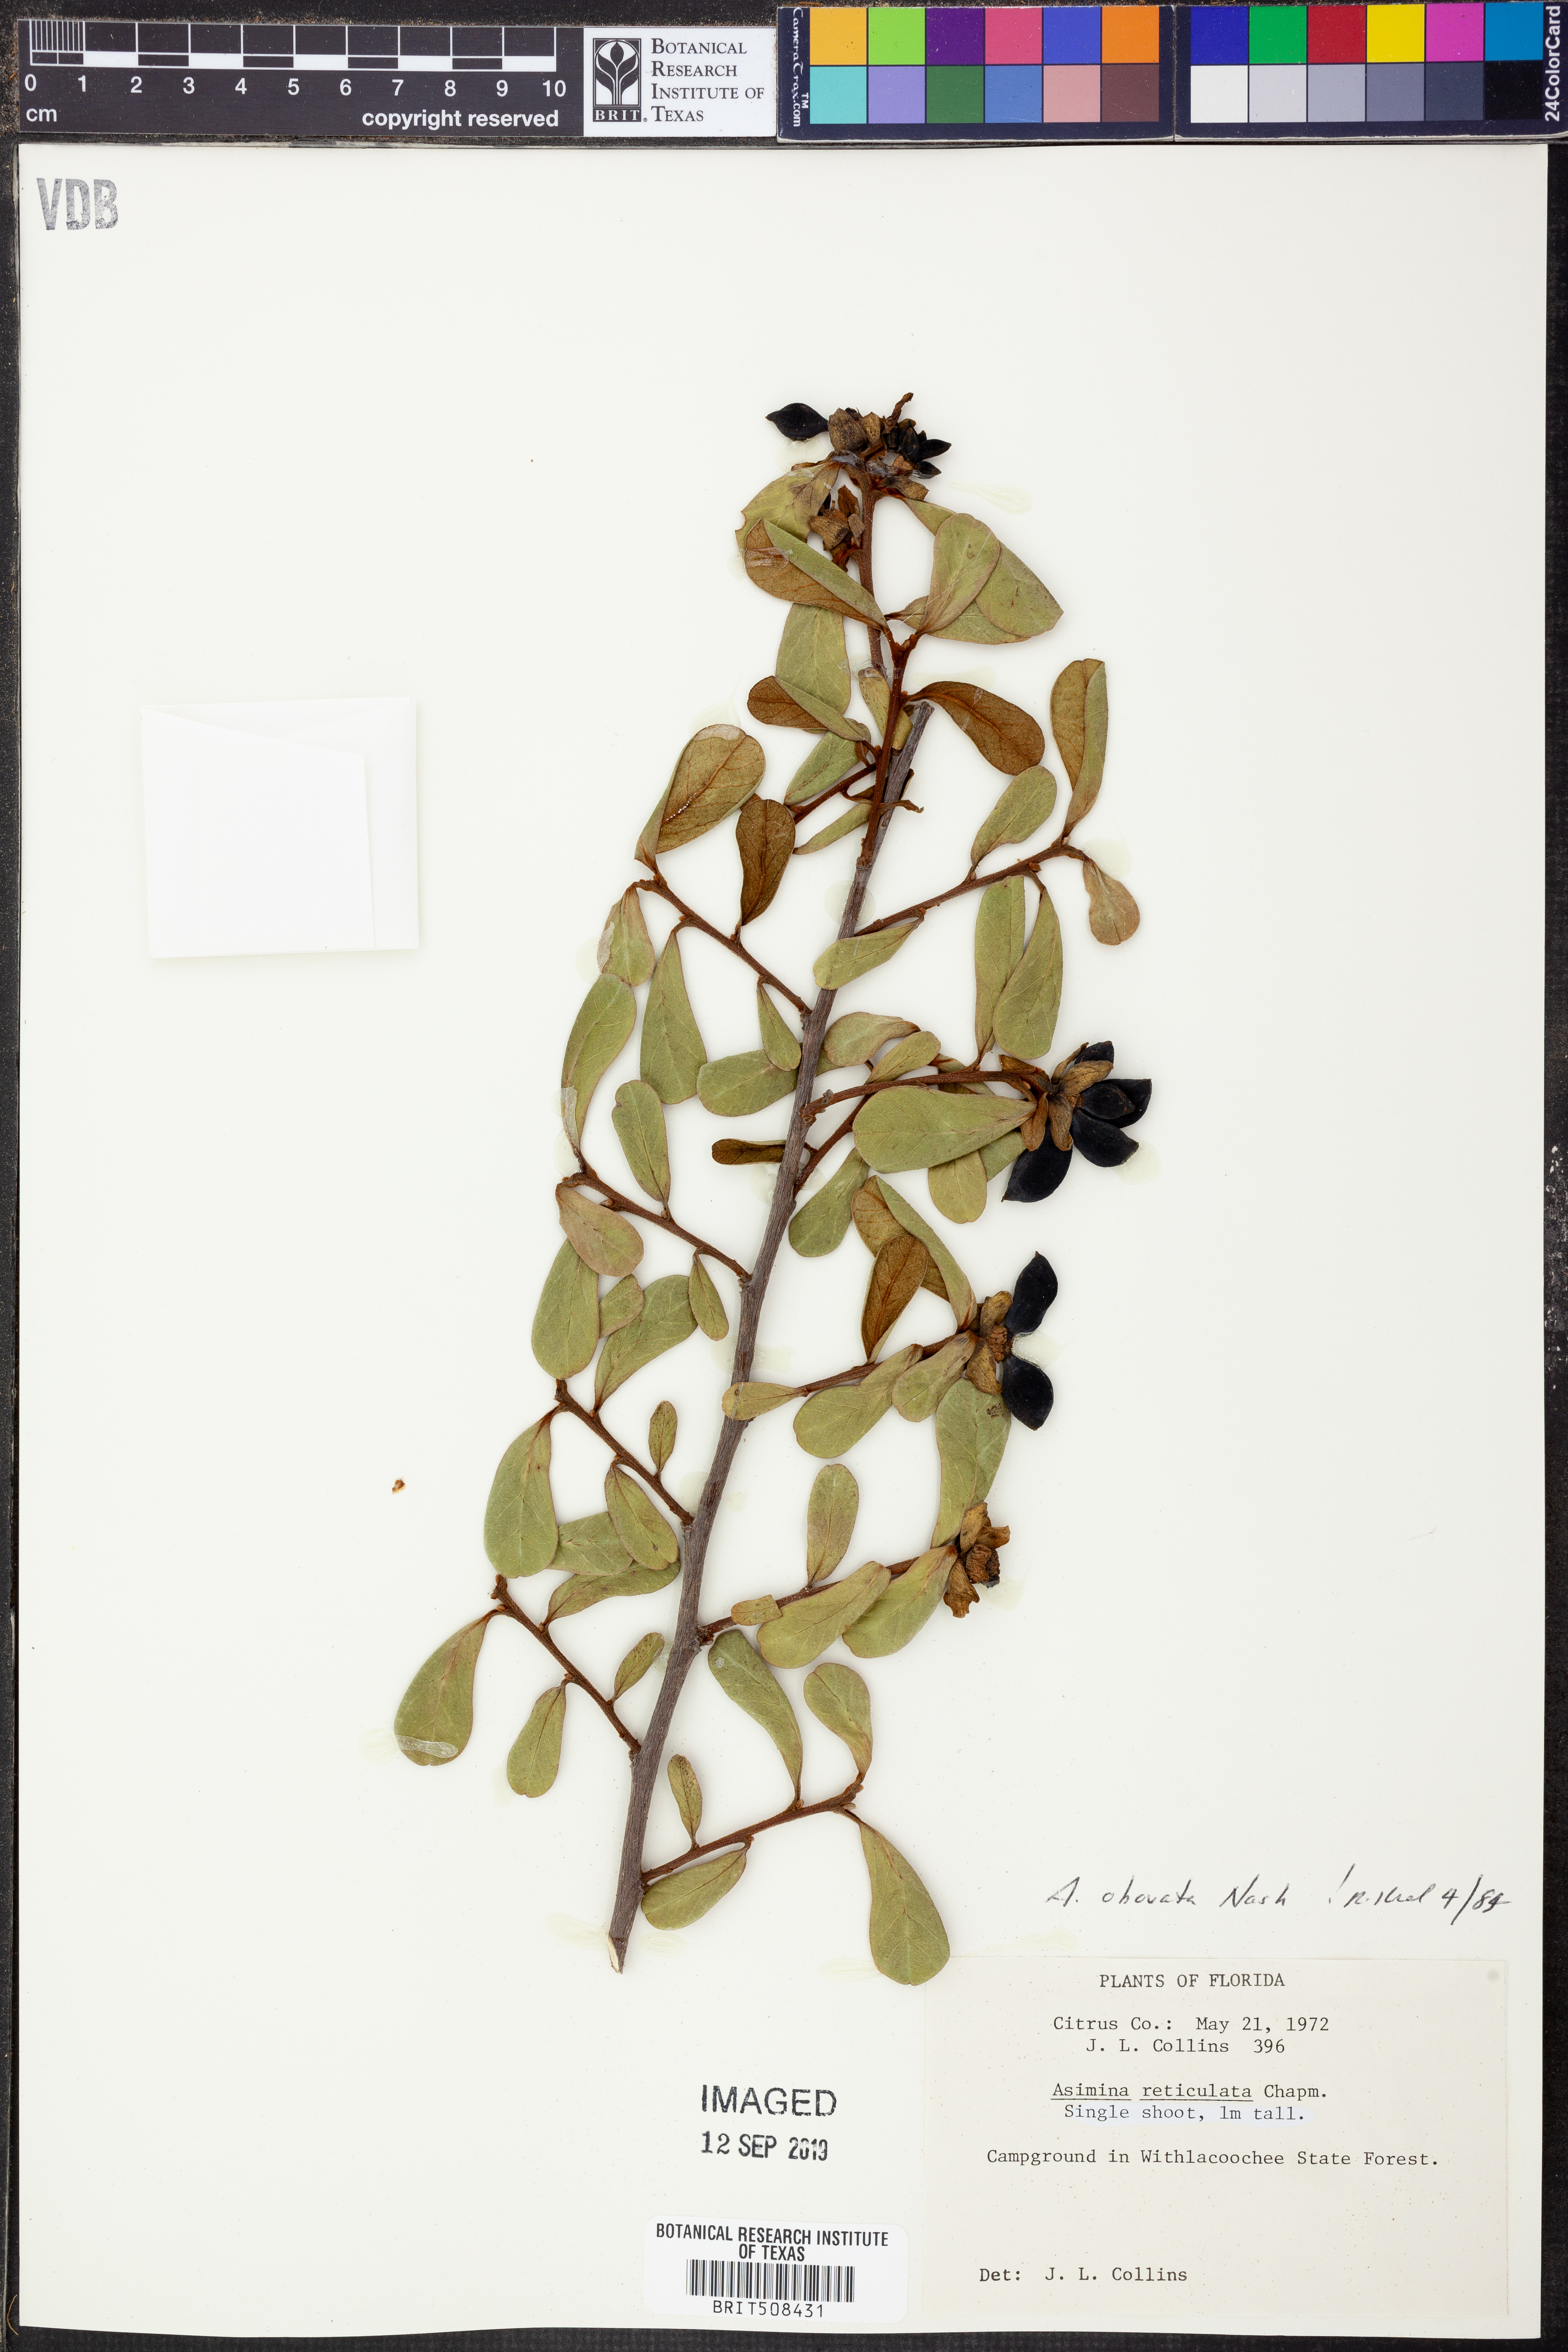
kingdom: Plantae
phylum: Tracheophyta
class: Magnoliopsida
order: Magnoliales
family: Annonaceae
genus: Asimina
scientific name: Asimina obovata
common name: Flag pawpaw
